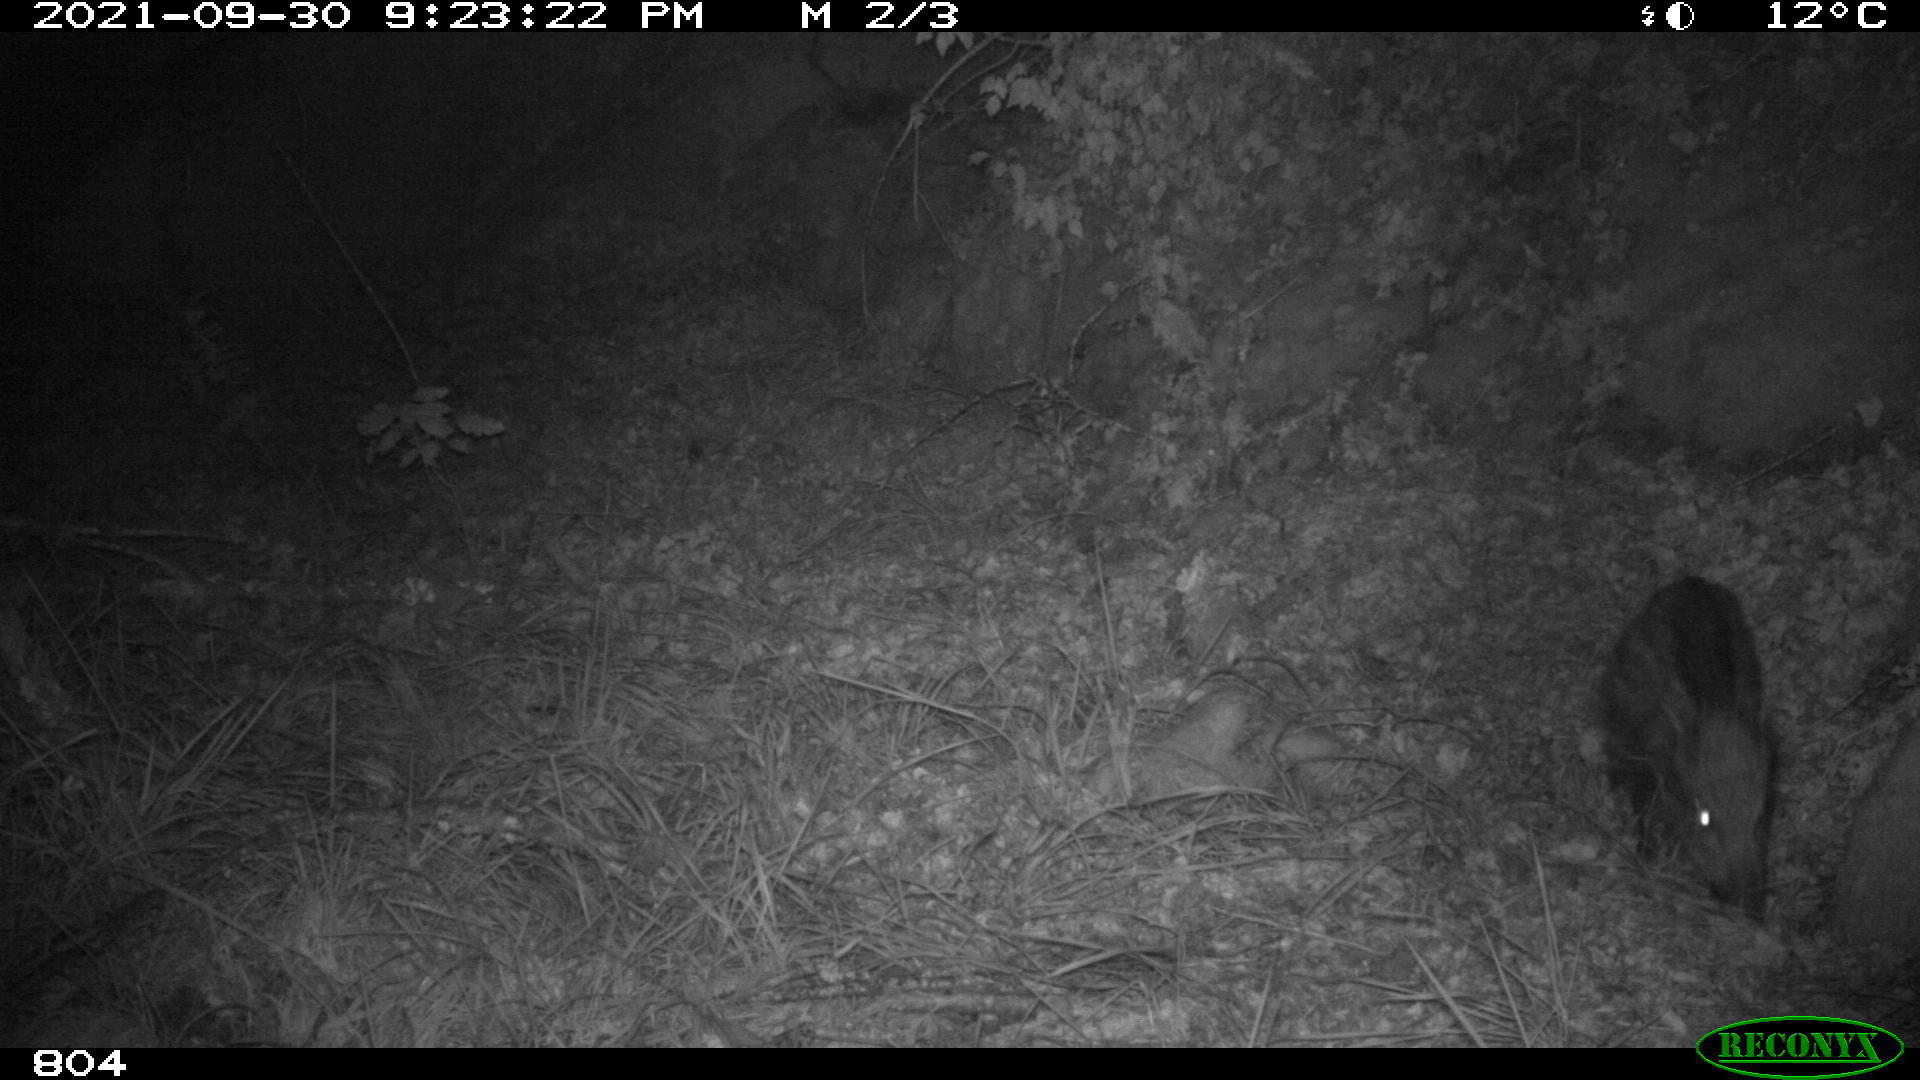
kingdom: Animalia
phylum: Chordata
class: Mammalia
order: Artiodactyla
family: Suidae
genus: Sus
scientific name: Sus scrofa
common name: Wild boar
